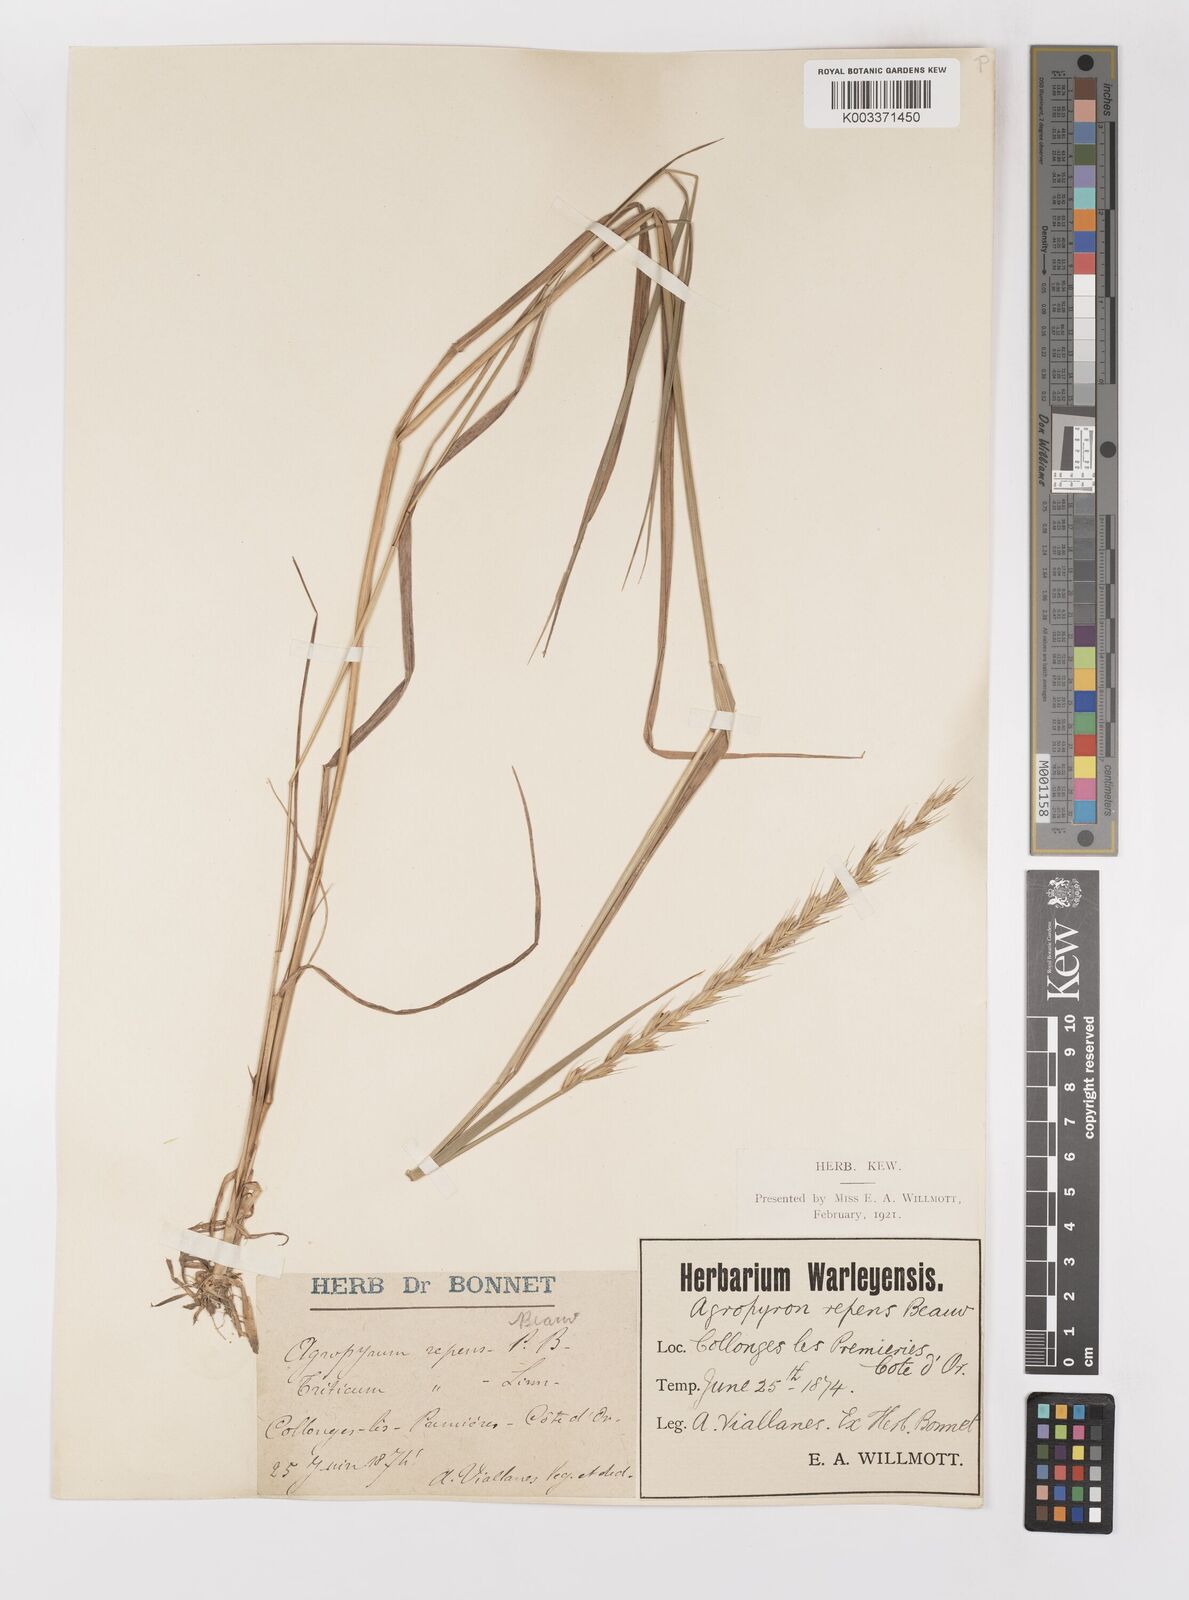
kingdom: Plantae
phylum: Tracheophyta
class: Liliopsida
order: Poales
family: Poaceae
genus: Elymus
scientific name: Elymus repens
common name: Quackgrass
